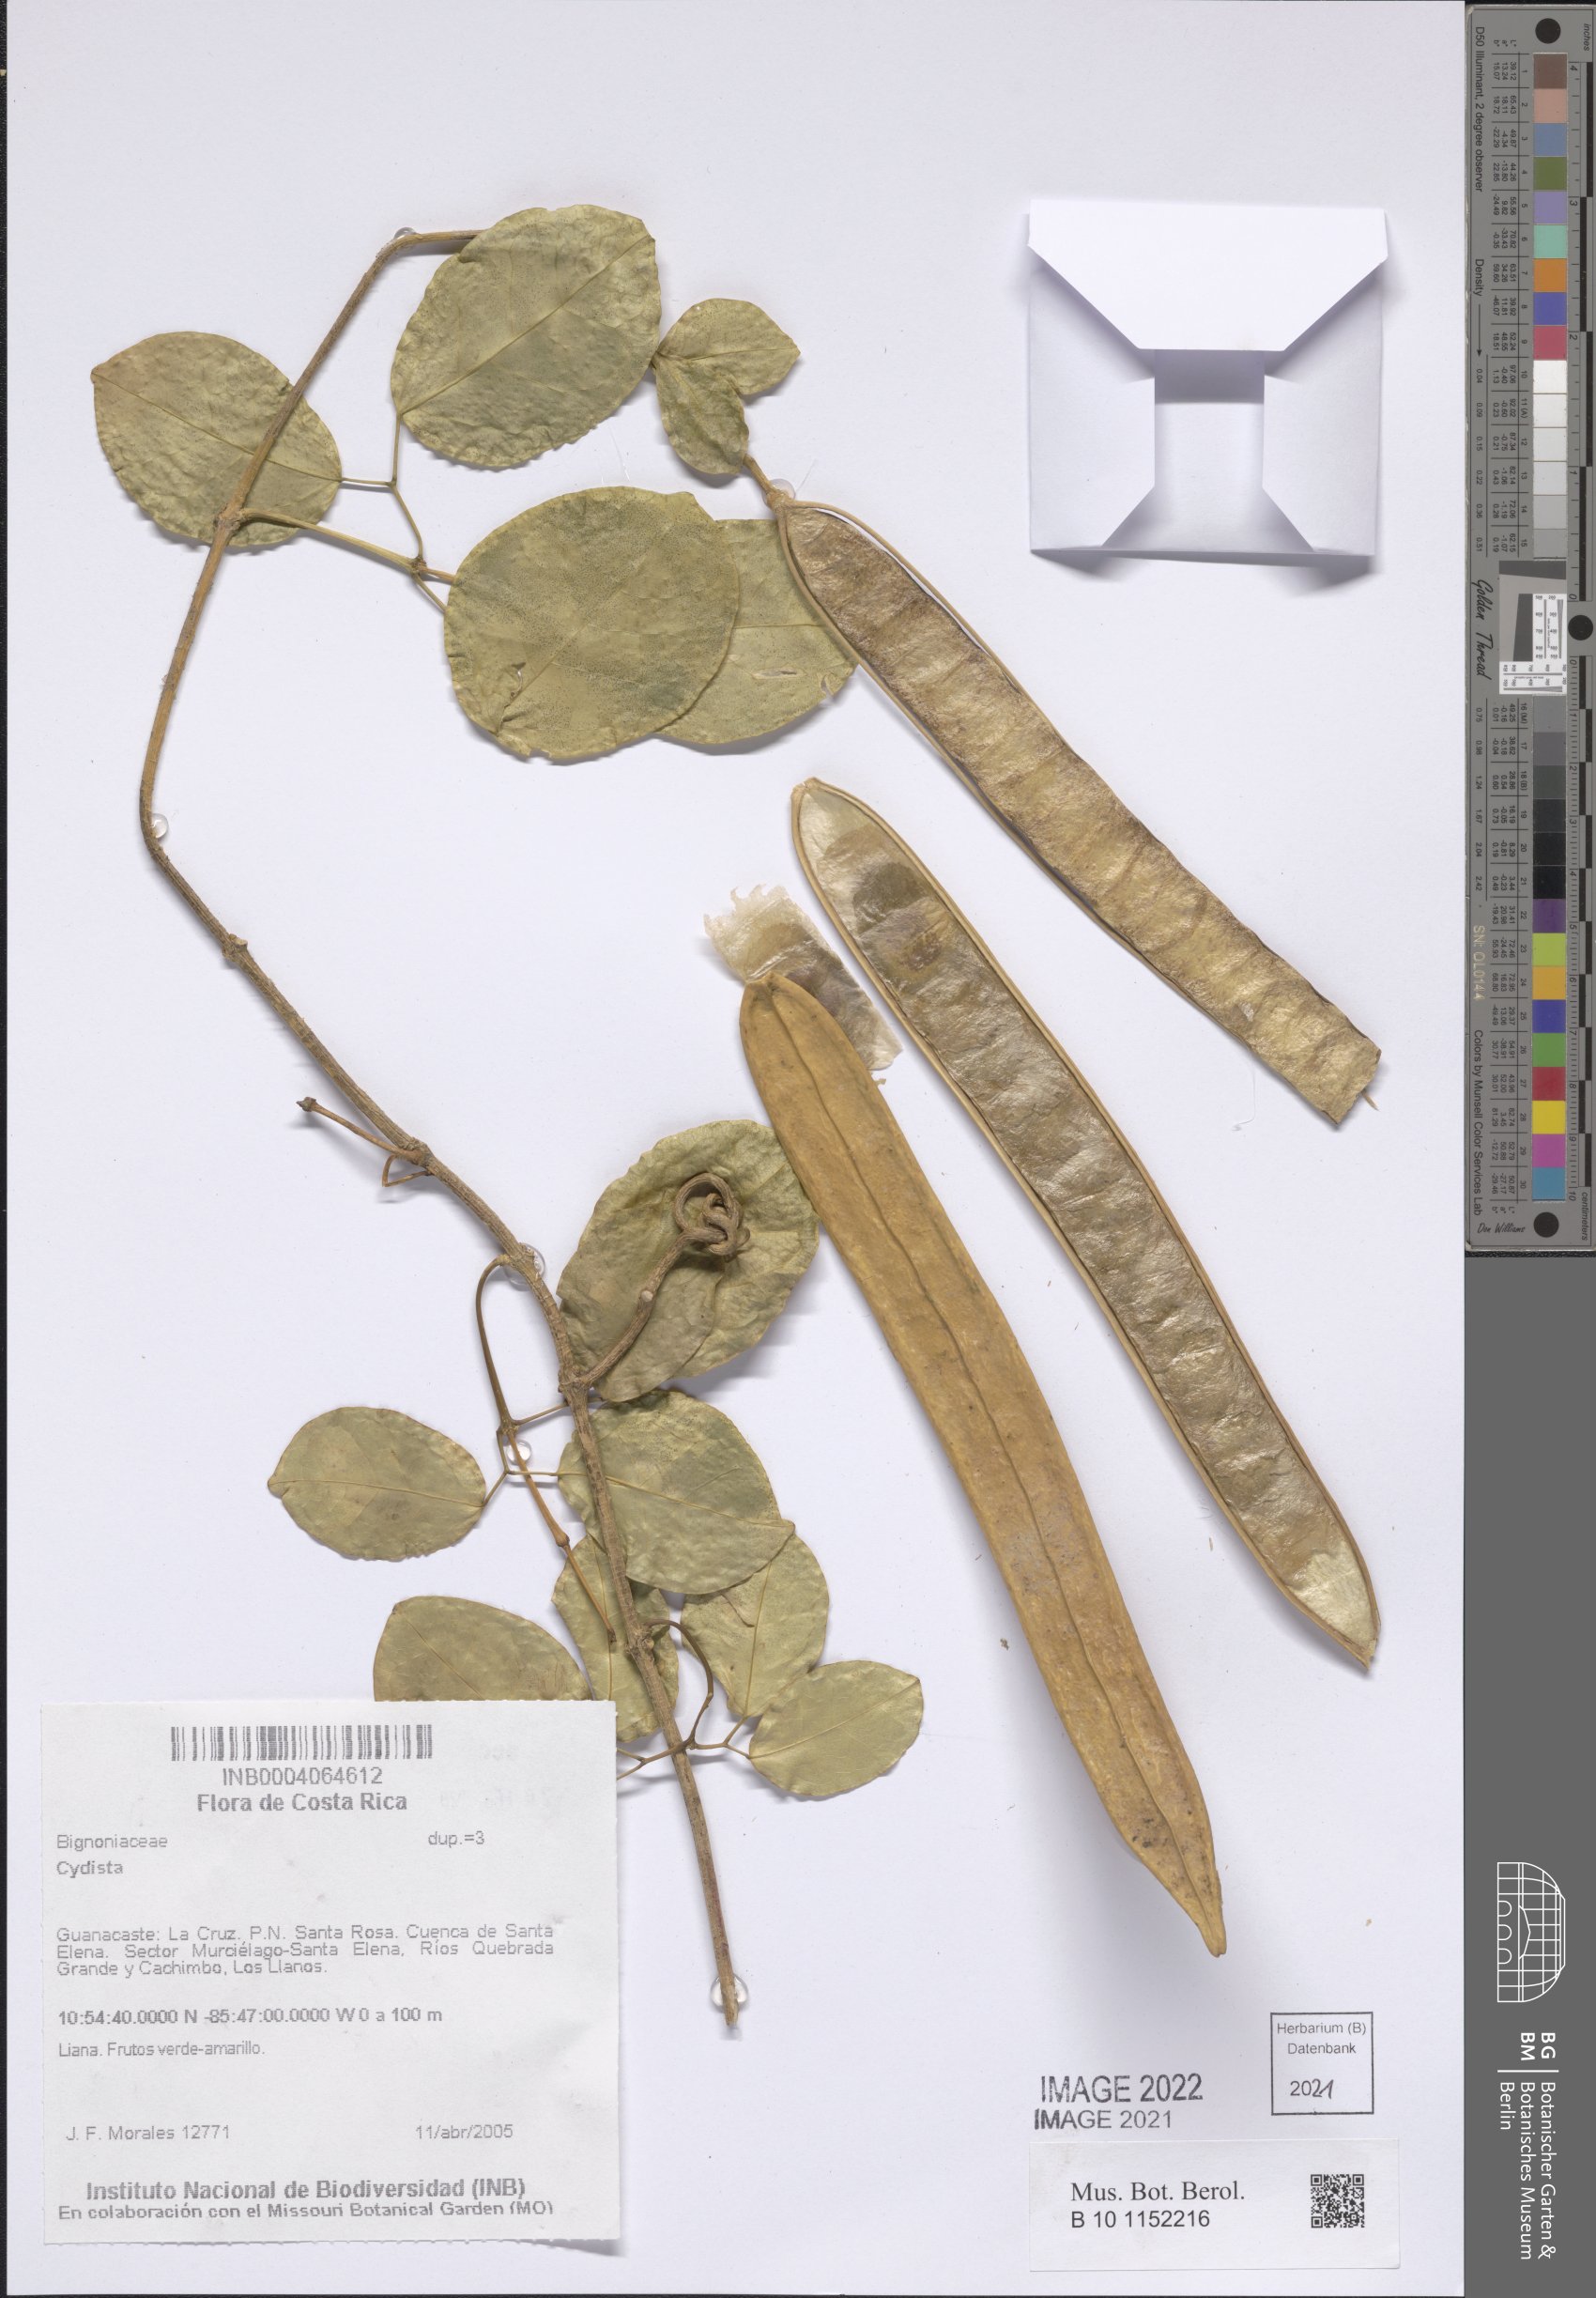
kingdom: Plantae
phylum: Tracheophyta
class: Magnoliopsida
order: Lamiales
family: Bignoniaceae
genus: Bignonia
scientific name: Bignonia
